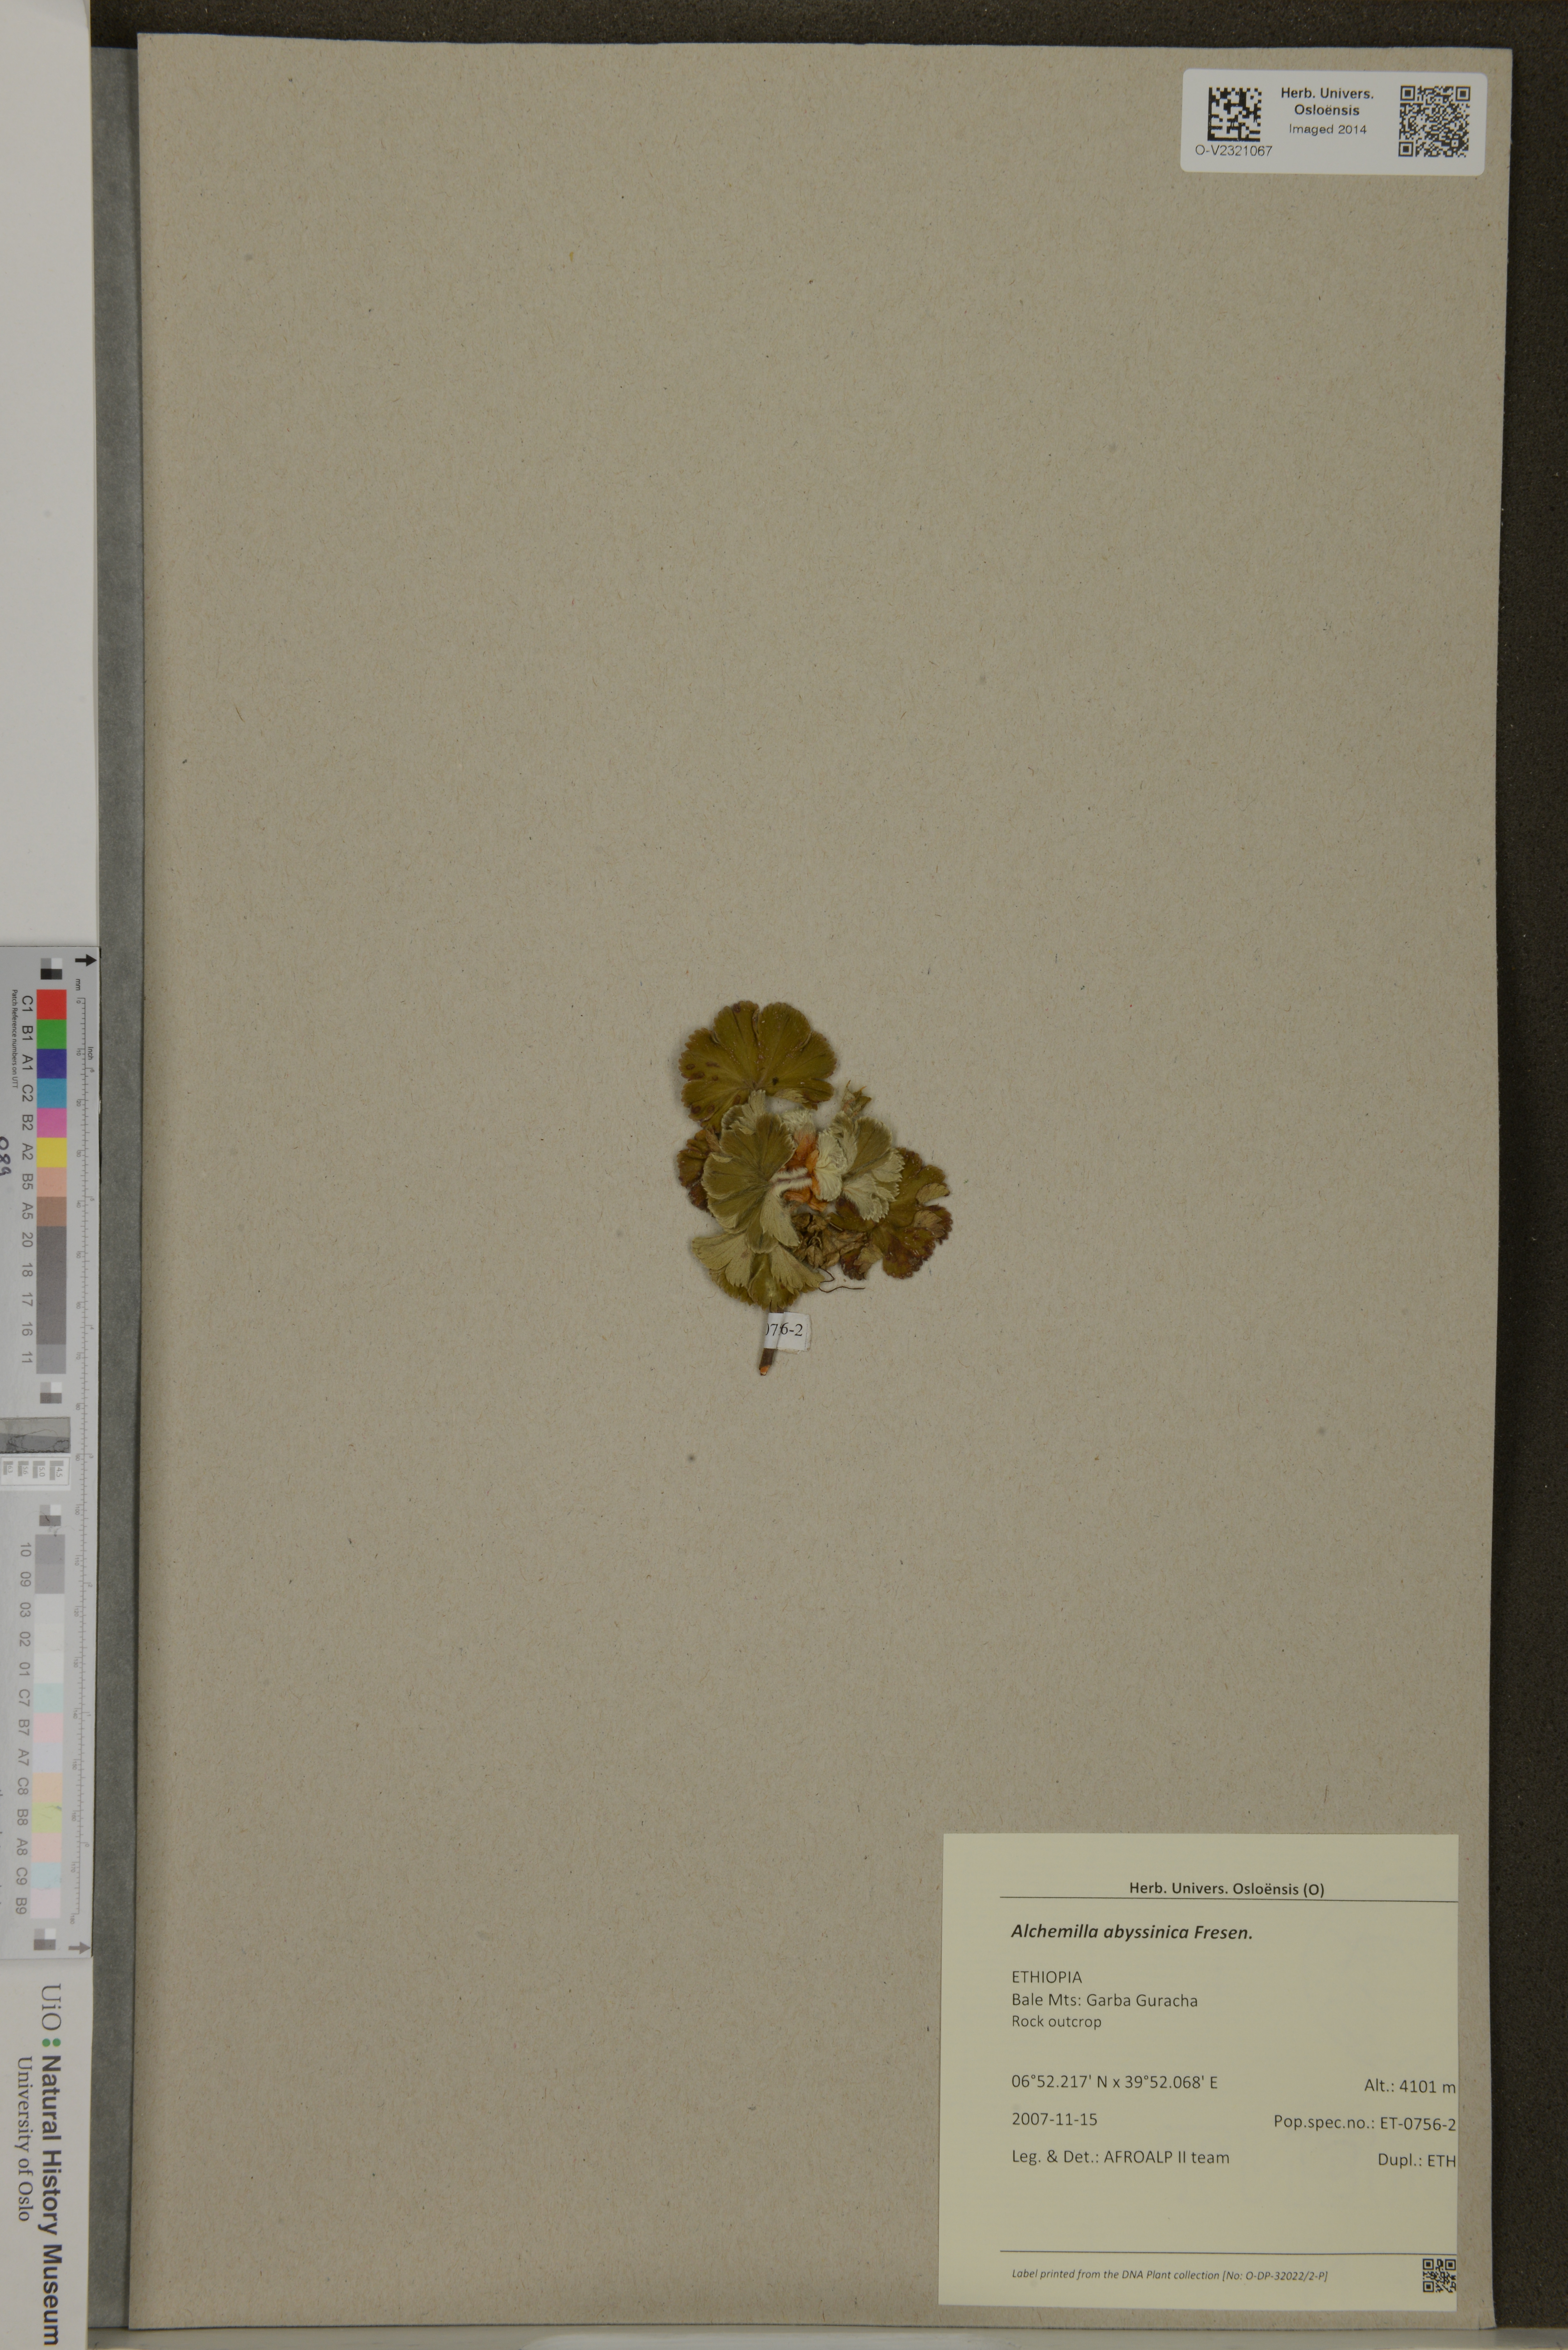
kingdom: Plantae
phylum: Tracheophyta
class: Magnoliopsida
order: Rosales
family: Rosaceae
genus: Alchemilla
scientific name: Alchemilla abyssinica
